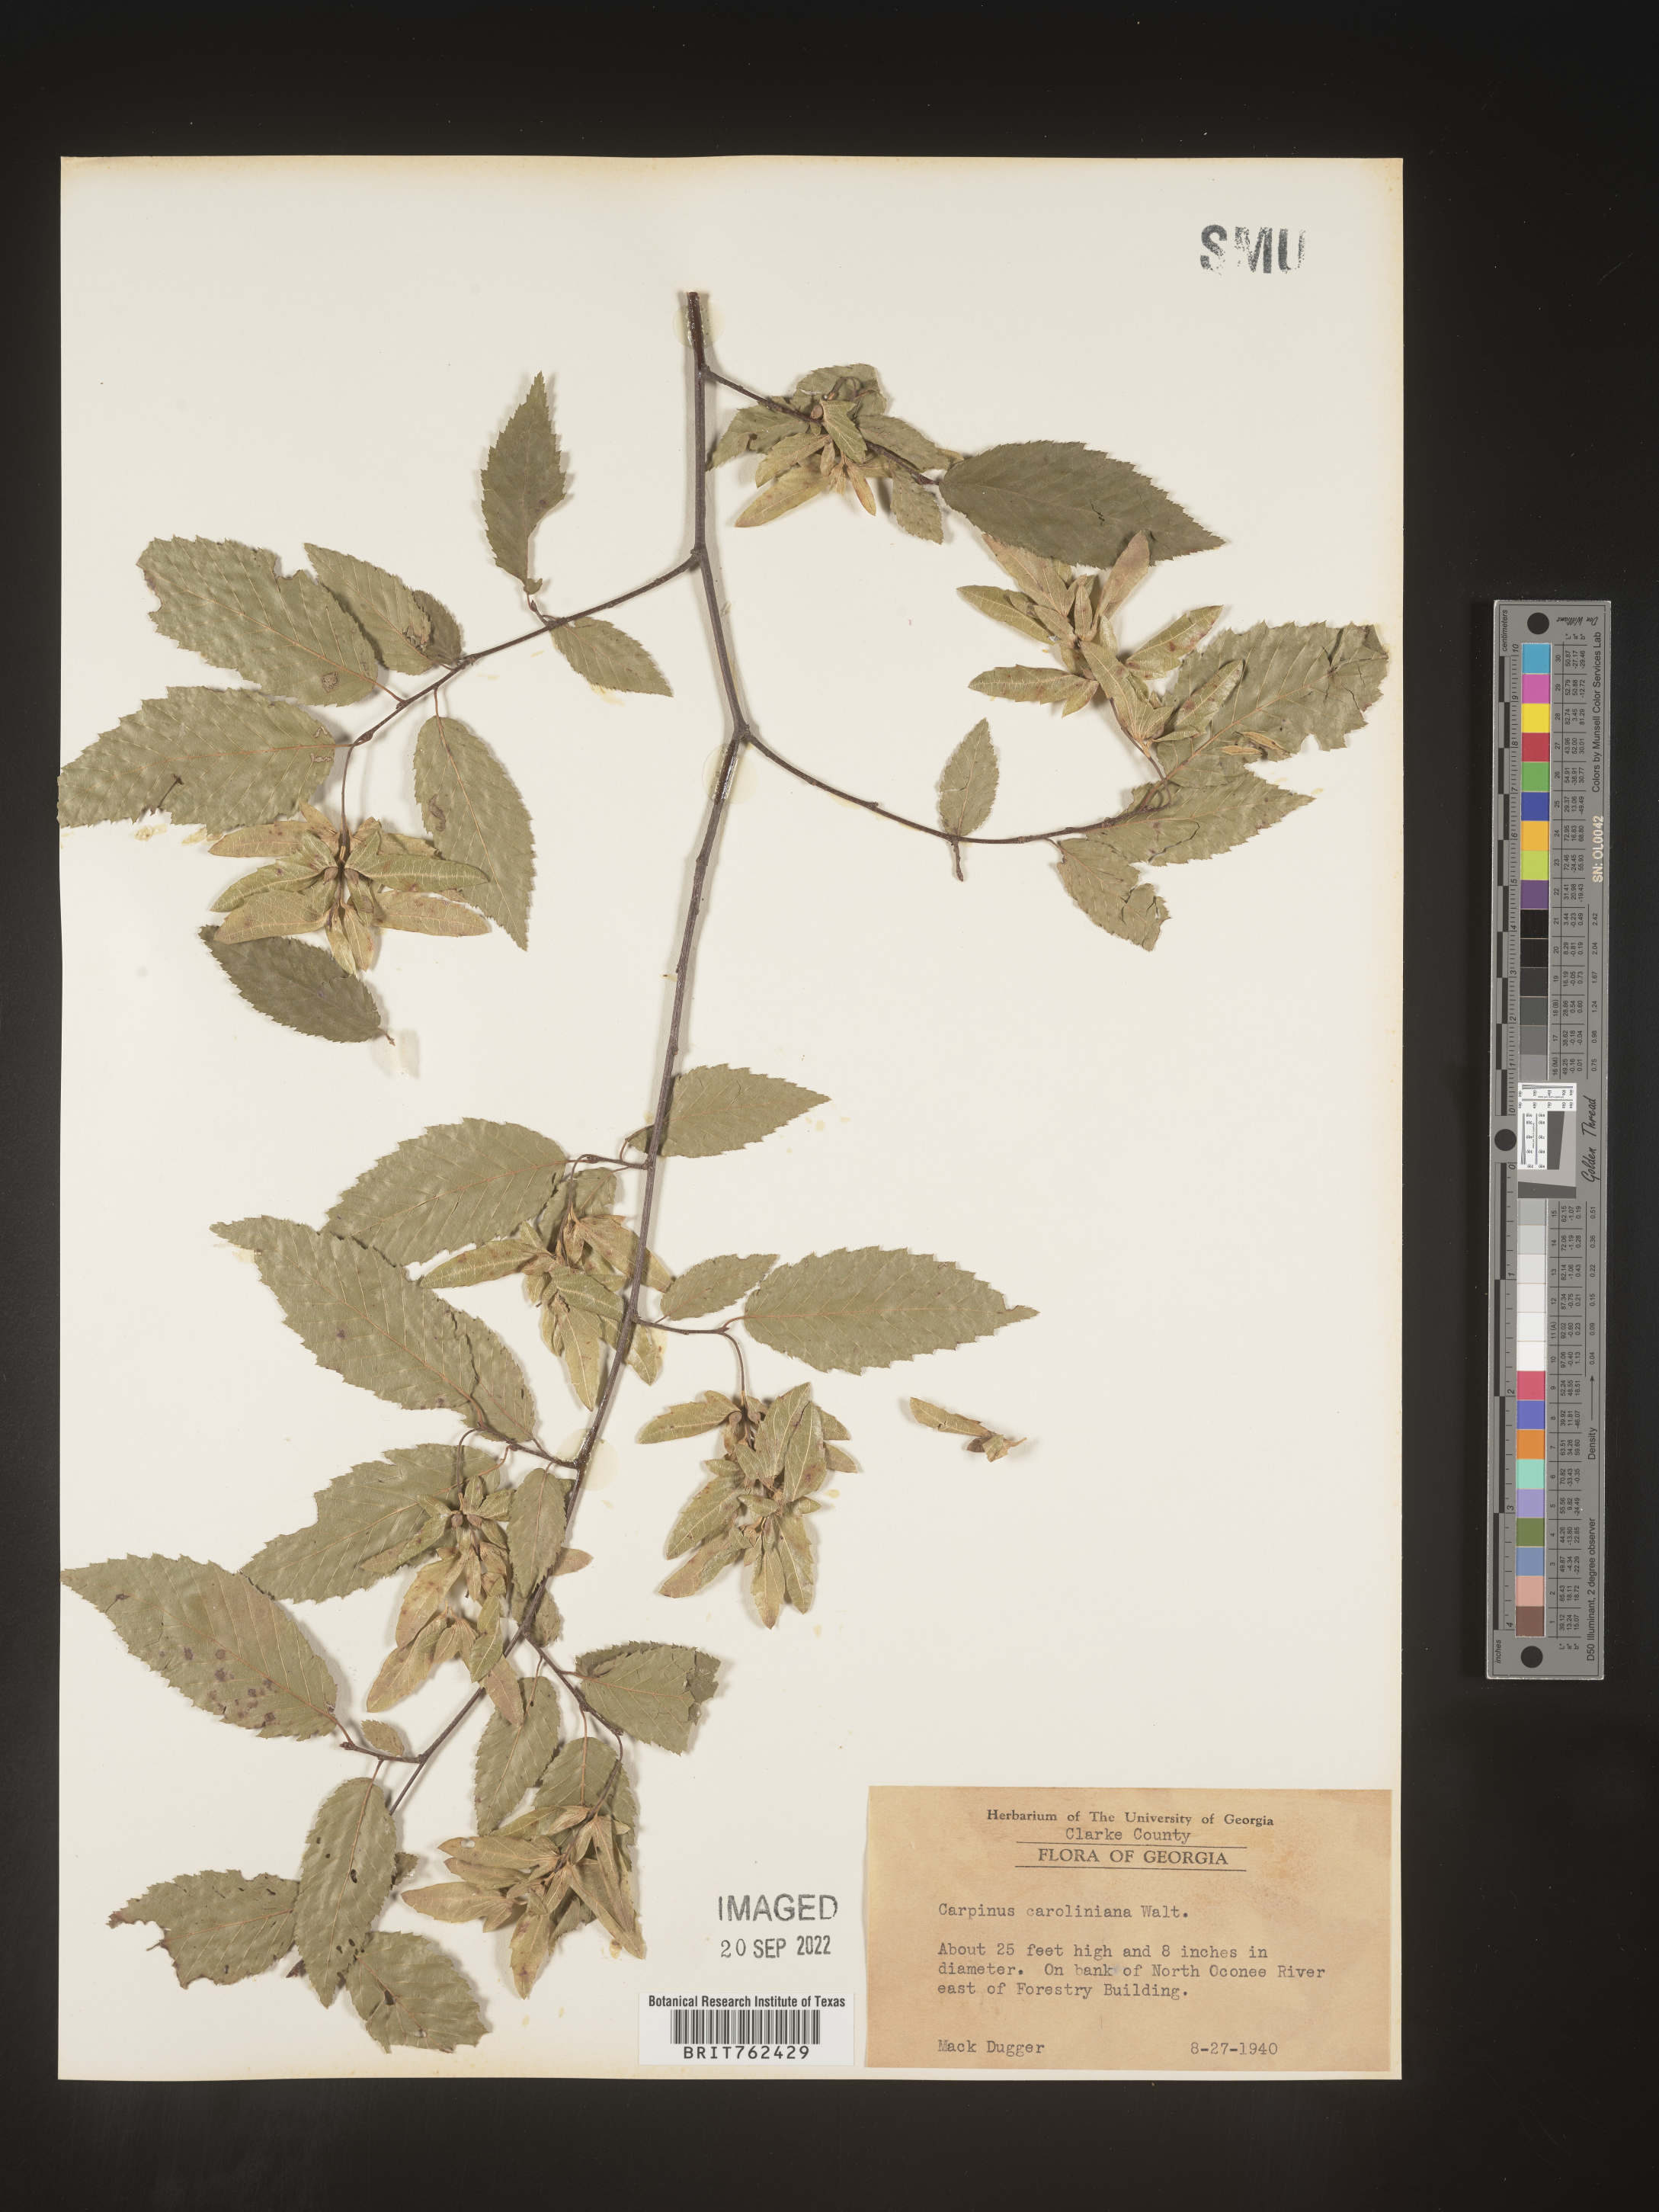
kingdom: Plantae
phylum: Tracheophyta
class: Magnoliopsida
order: Fagales
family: Betulaceae
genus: Carpinus
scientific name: Carpinus caroliniana
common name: American hornbeam
